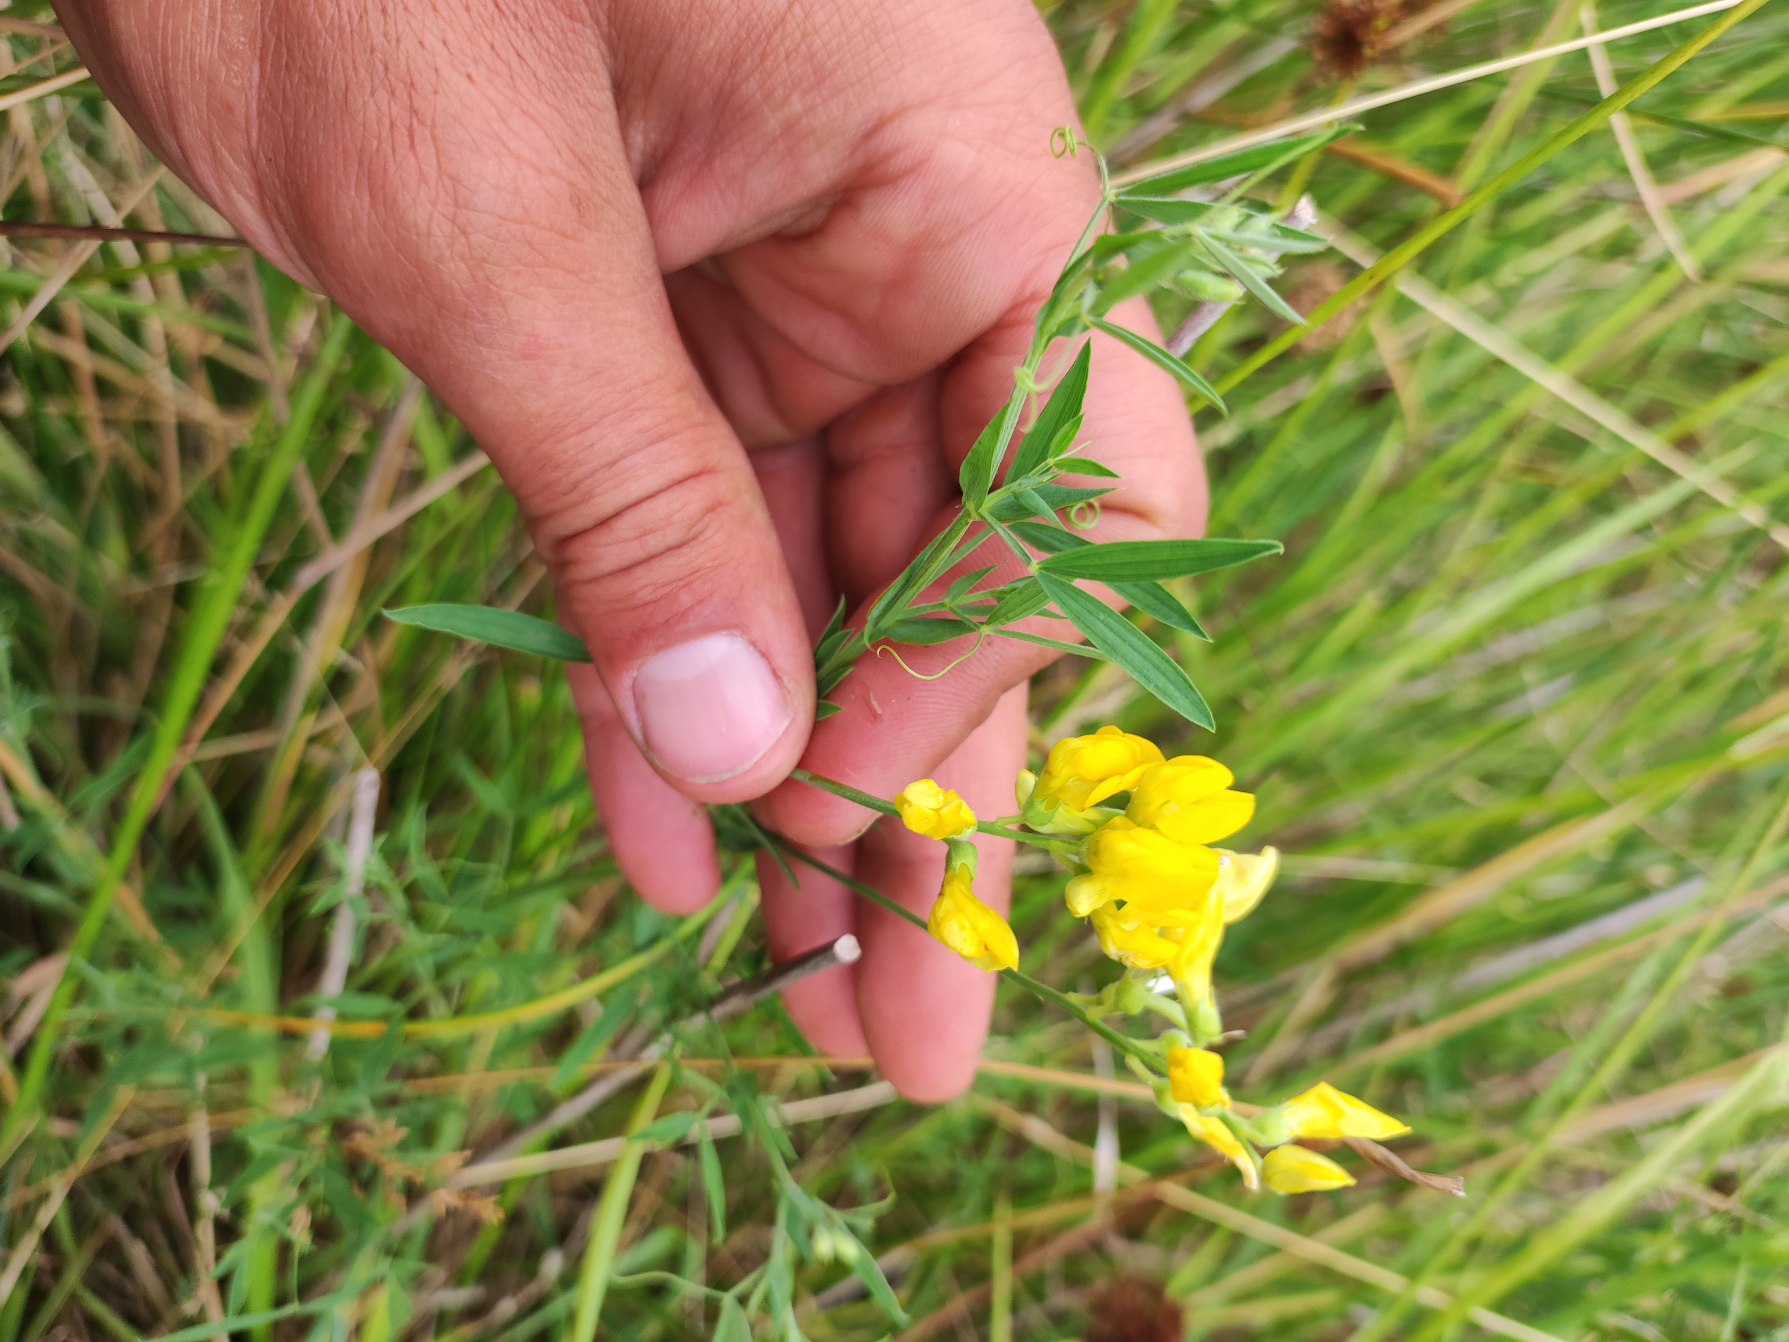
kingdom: Plantae
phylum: Tracheophyta
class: Magnoliopsida
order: Fabales
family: Fabaceae
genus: Lathyrus
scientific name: Lathyrus pratensis
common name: Gul fladbælg
